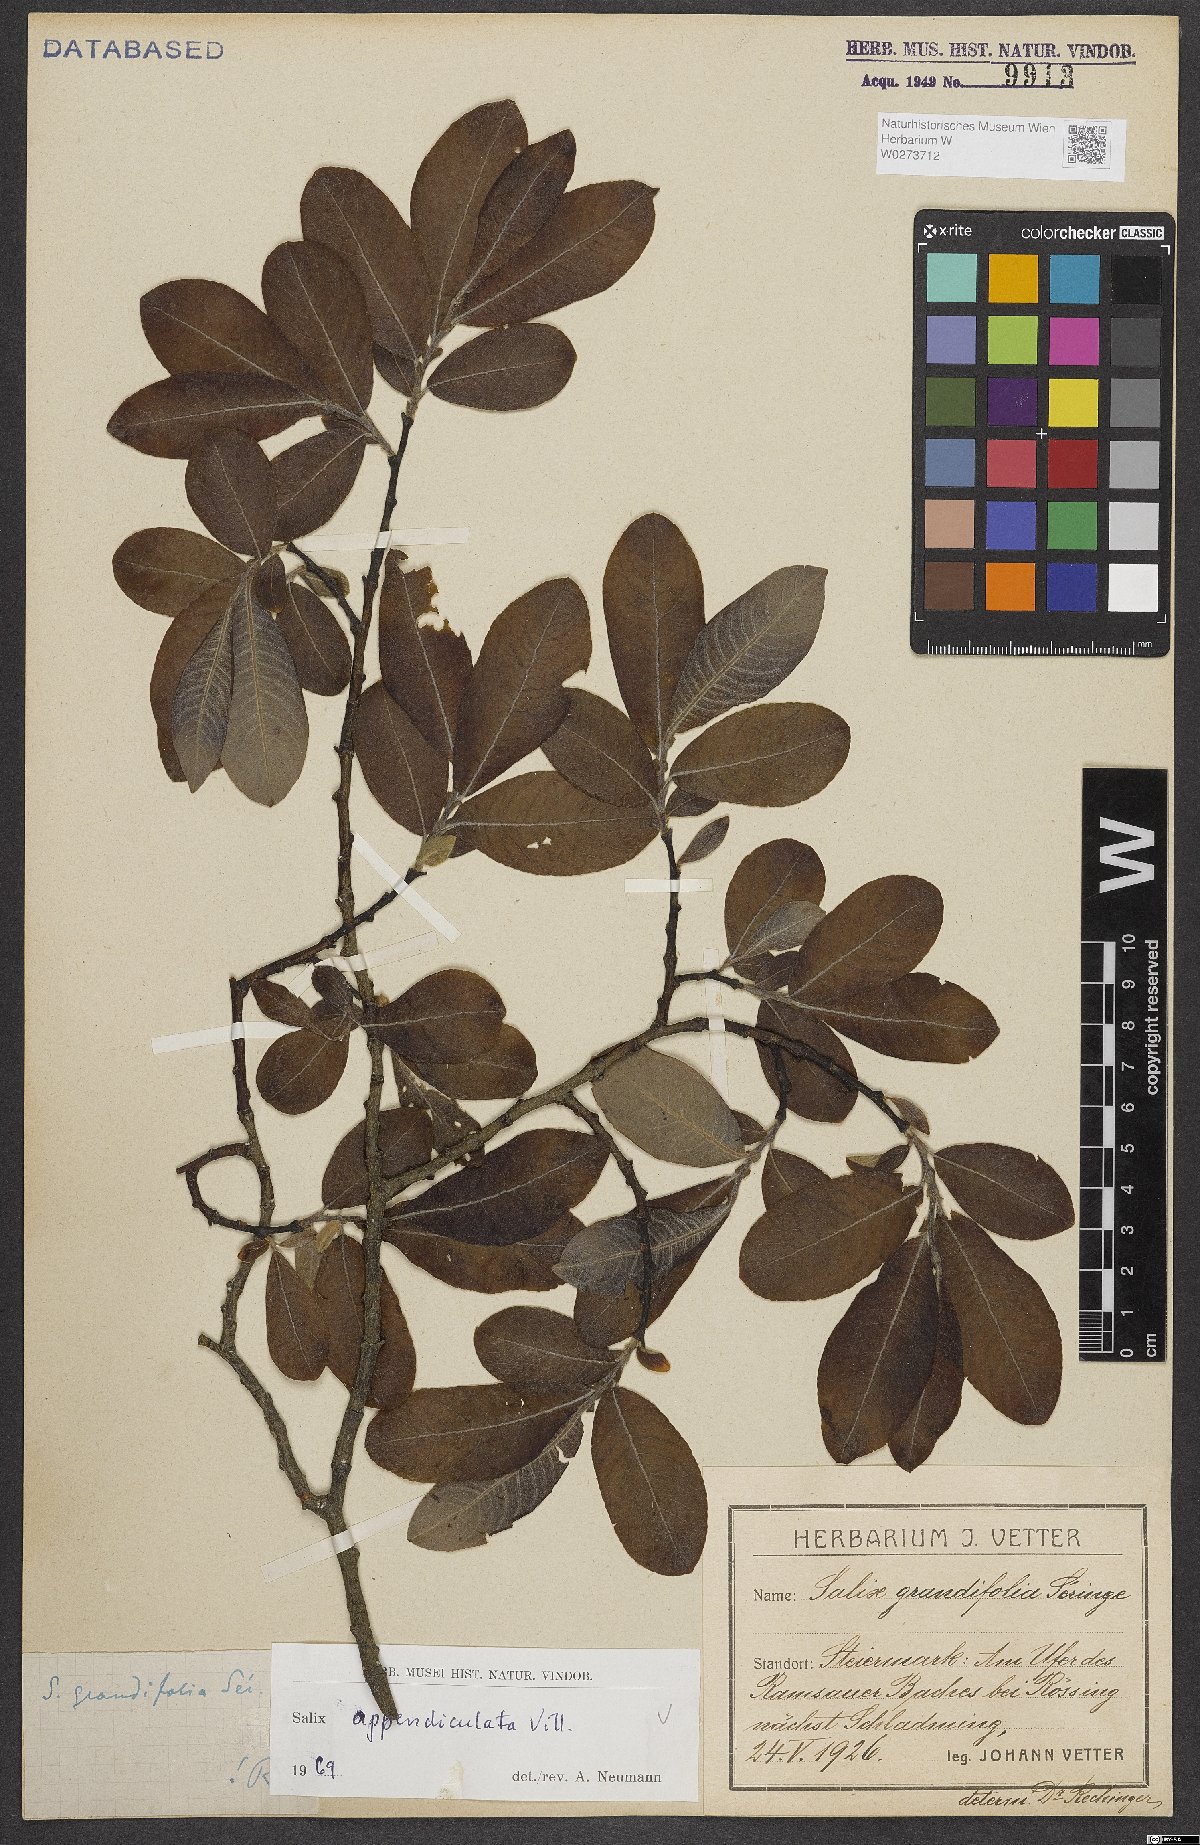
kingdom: Plantae
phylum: Tracheophyta
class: Magnoliopsida
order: Malpighiales
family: Salicaceae
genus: Salix
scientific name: Salix appendiculata
